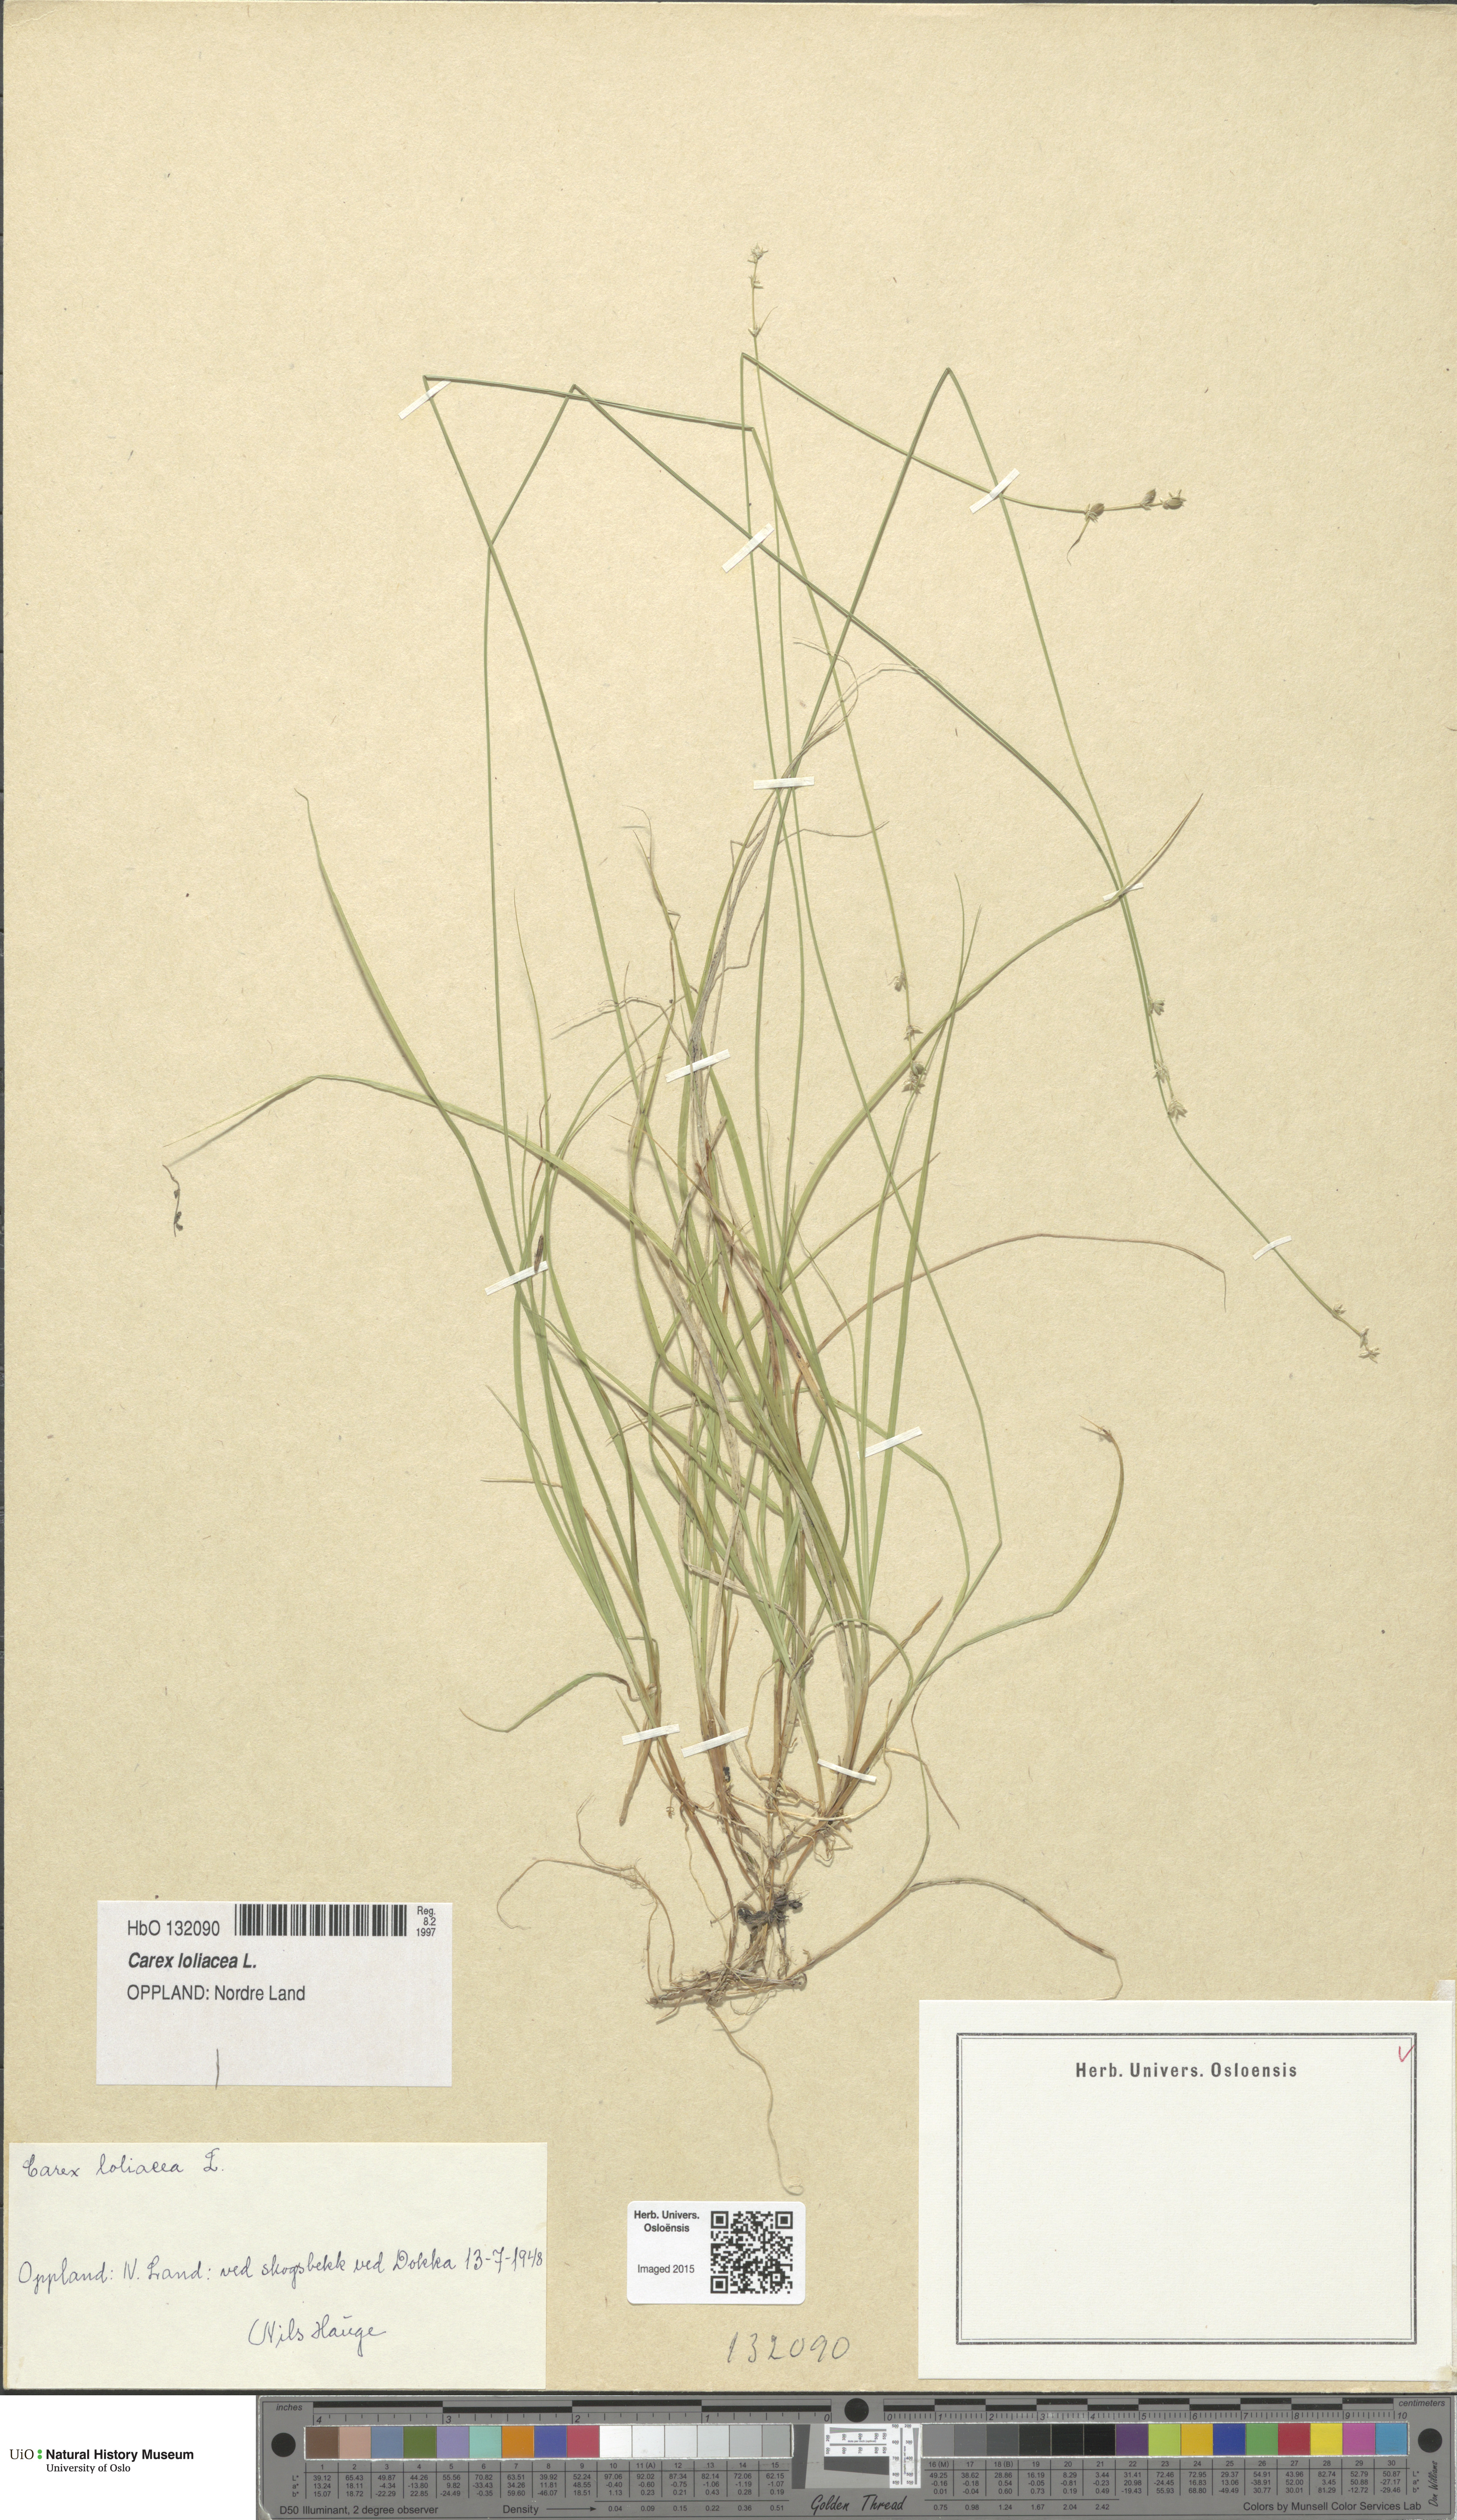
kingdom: Plantae
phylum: Tracheophyta
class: Liliopsida
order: Poales
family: Cyperaceae
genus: Carex
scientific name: Carex loliacea
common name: Ryegrass sedge
